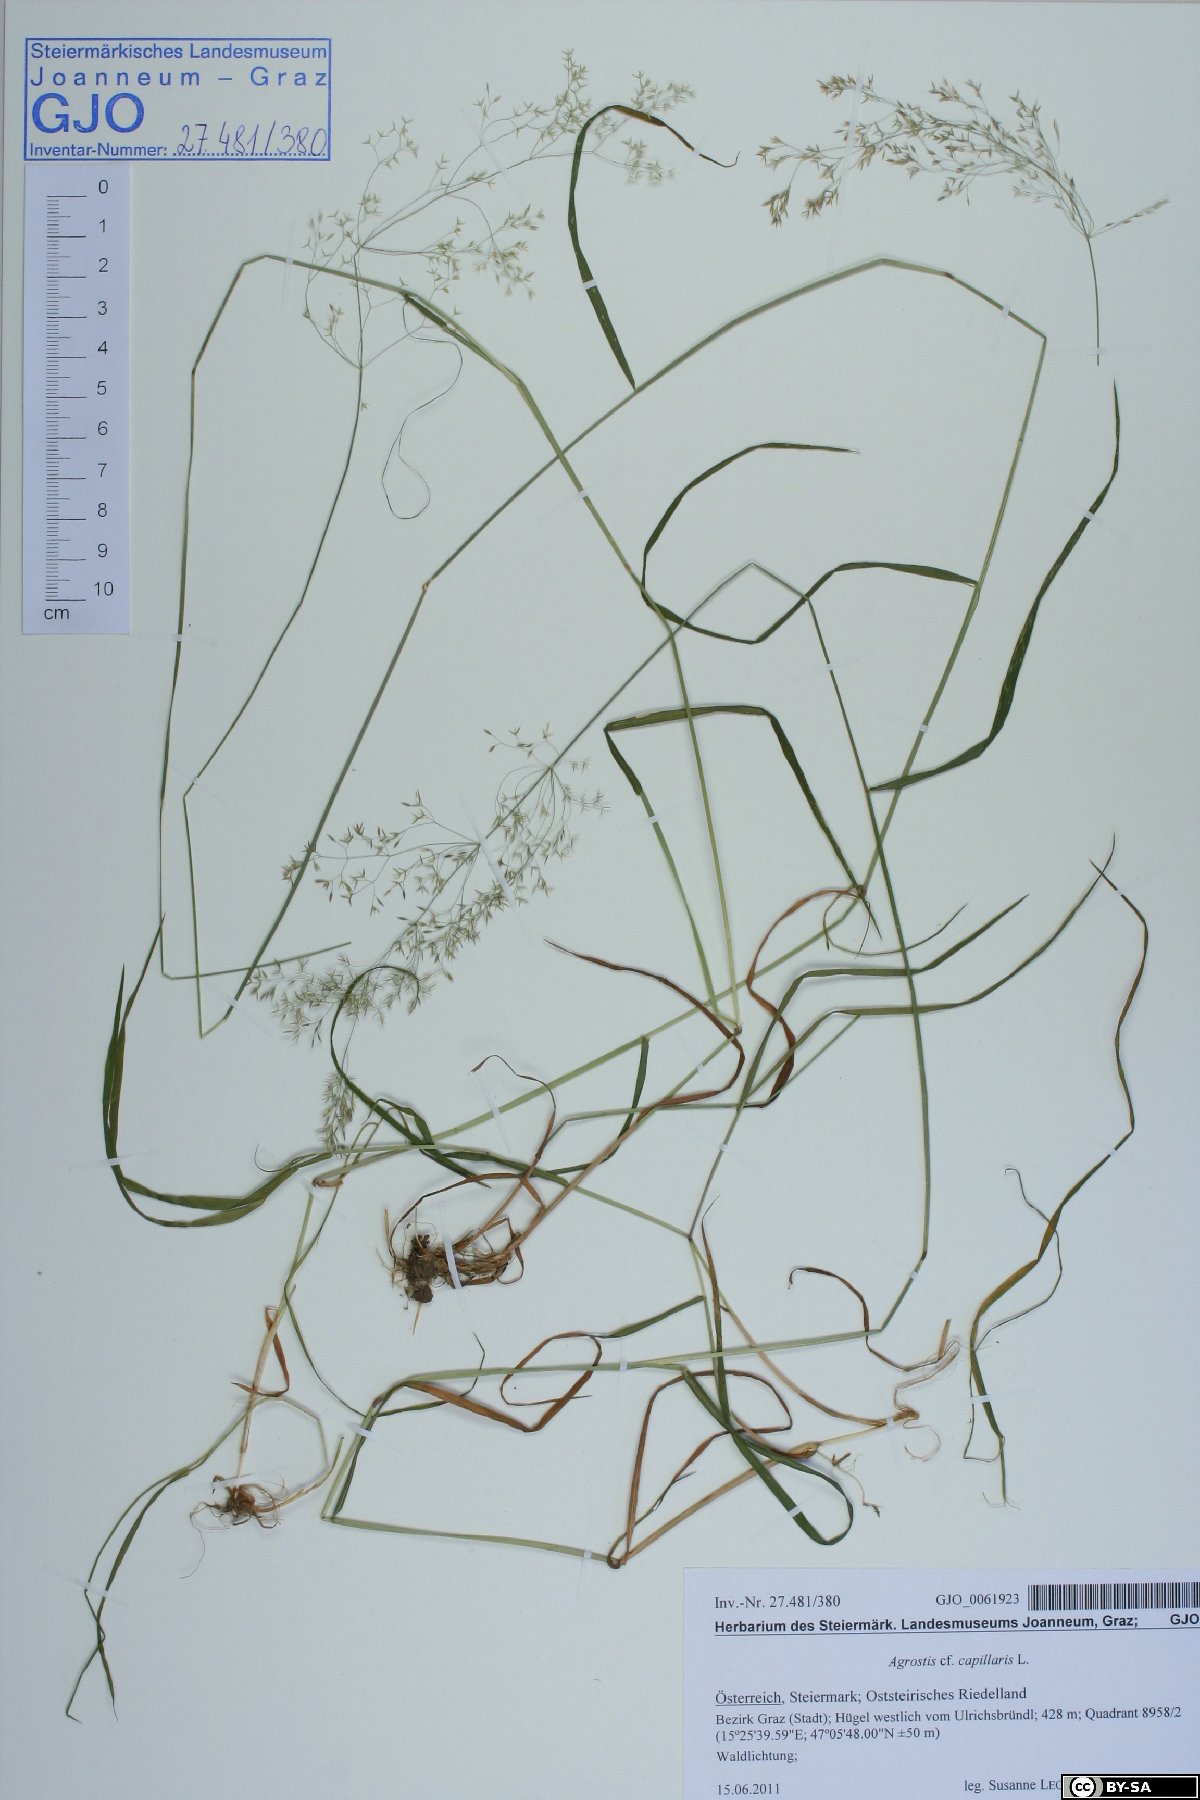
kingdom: Plantae
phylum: Tracheophyta
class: Liliopsida
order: Poales
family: Poaceae
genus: Agrostis
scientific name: Agrostis capillaris
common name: Colonial bentgrass
